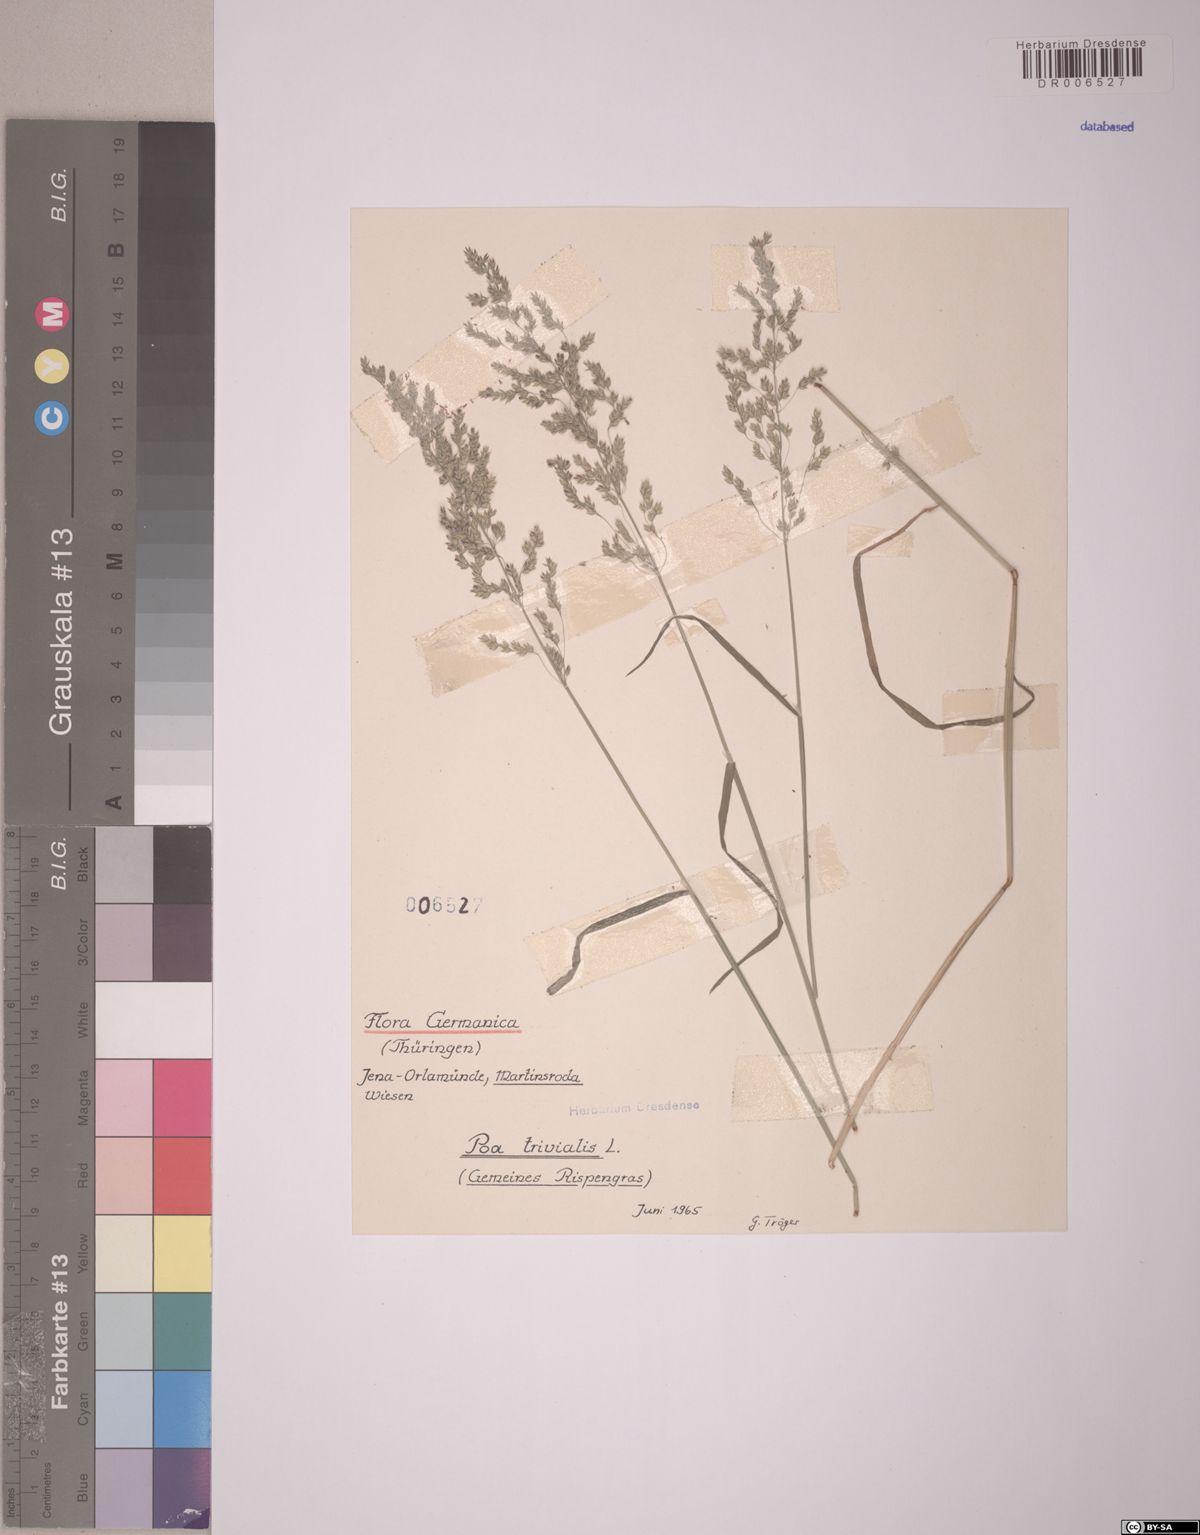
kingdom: Plantae
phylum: Tracheophyta
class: Liliopsida
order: Poales
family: Poaceae
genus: Poa
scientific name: Poa trivialis
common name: Rough bluegrass
